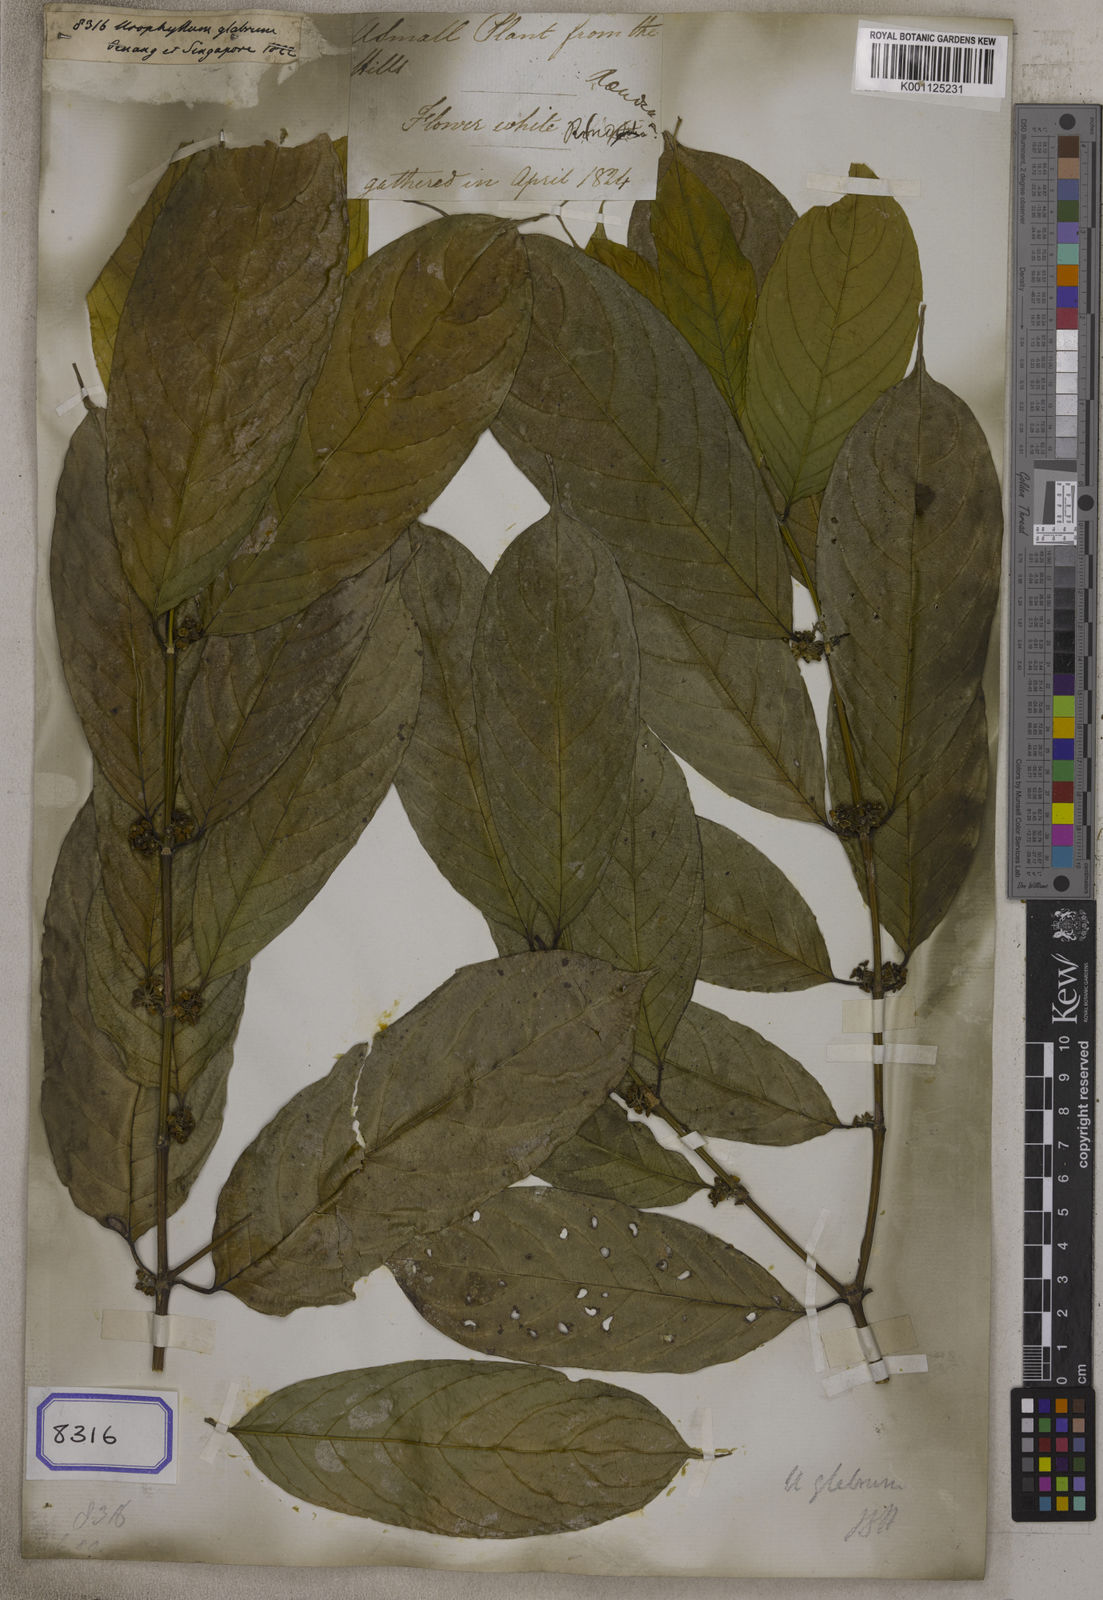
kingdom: Plantae
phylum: Tracheophyta
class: Magnoliopsida
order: Gentianales
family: Rubiaceae
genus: Urophyllum
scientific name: Urophyllum glabrum
